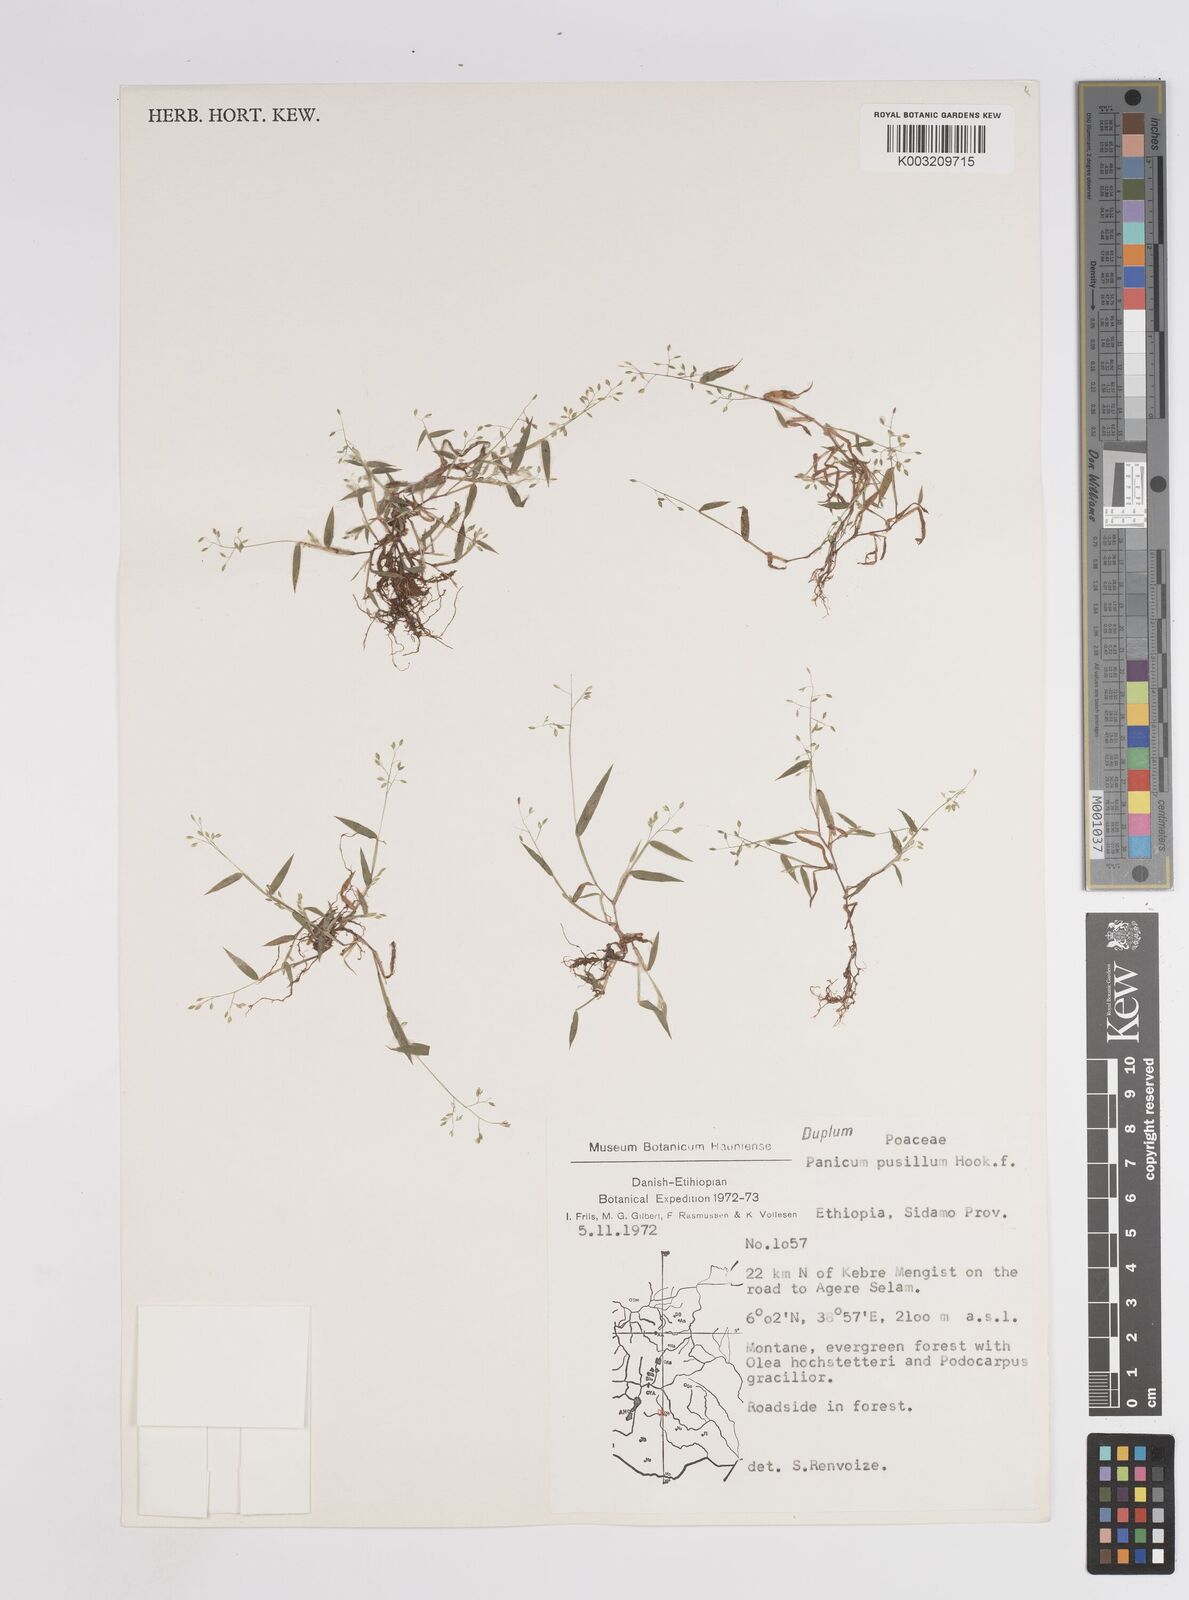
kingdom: Plantae
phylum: Tracheophyta
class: Liliopsida
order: Poales
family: Poaceae
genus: Panicum
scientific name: Panicum pusillum
